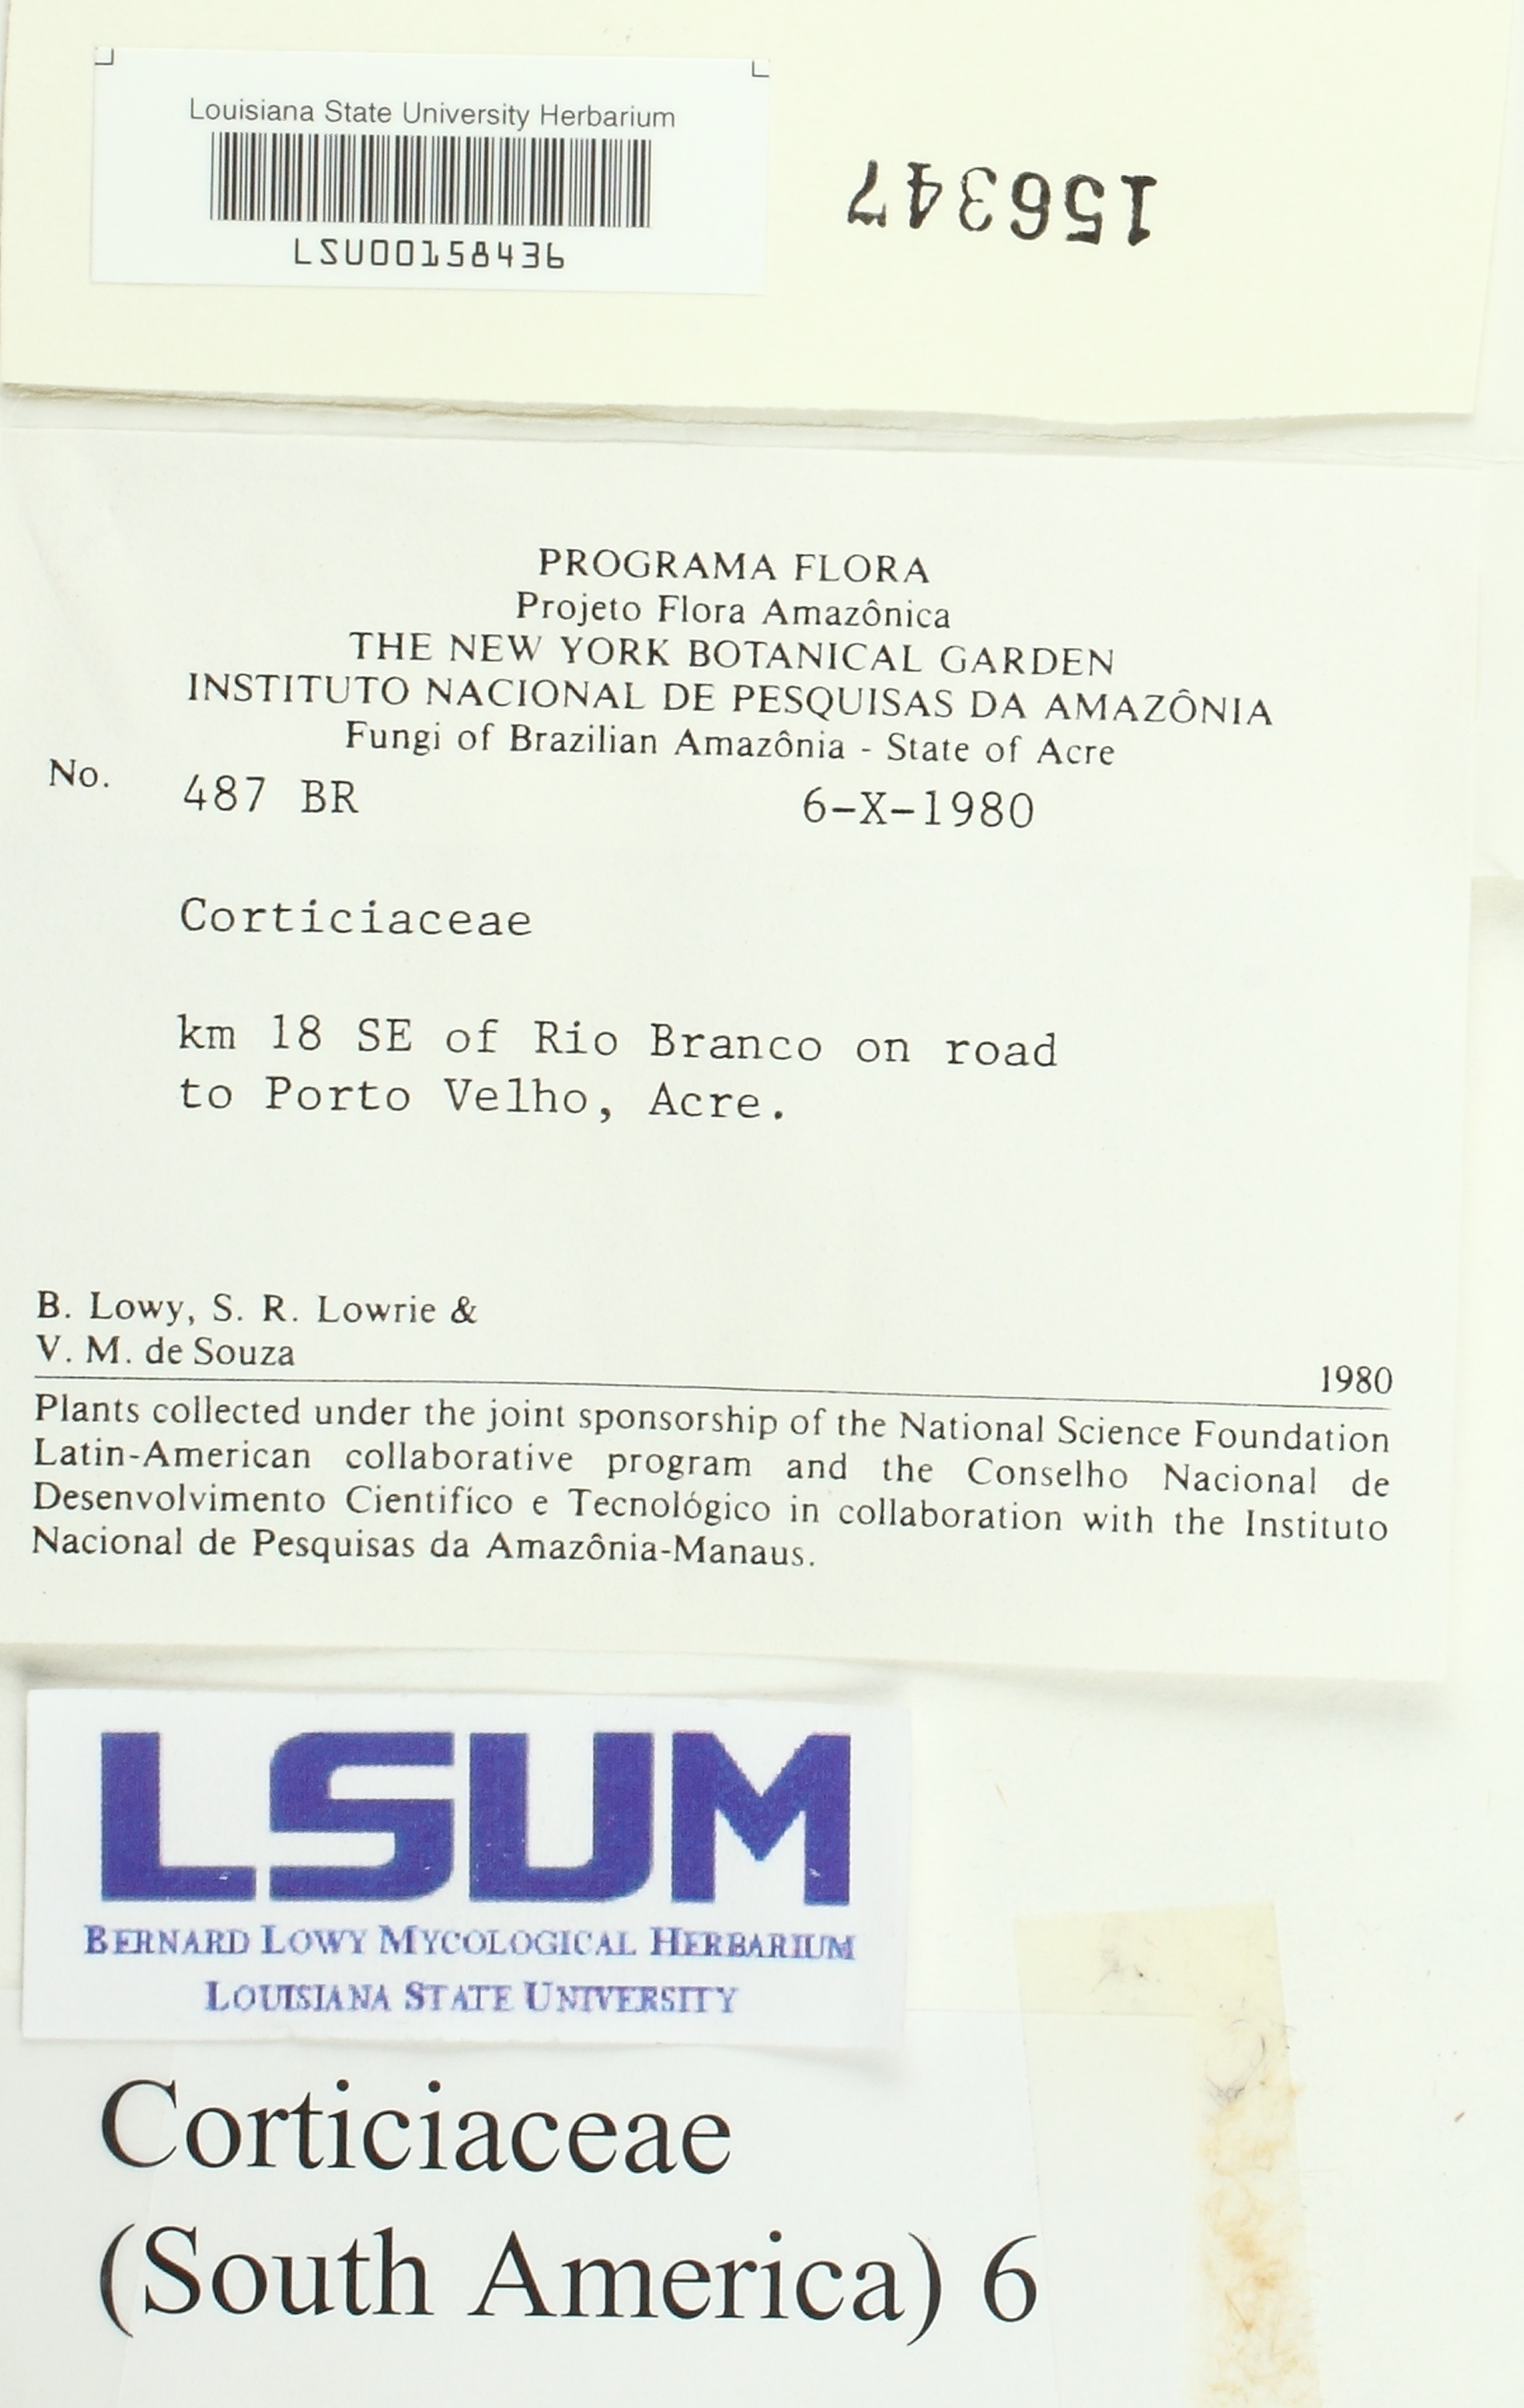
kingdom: Fungi
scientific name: Fungi
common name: Fungi
